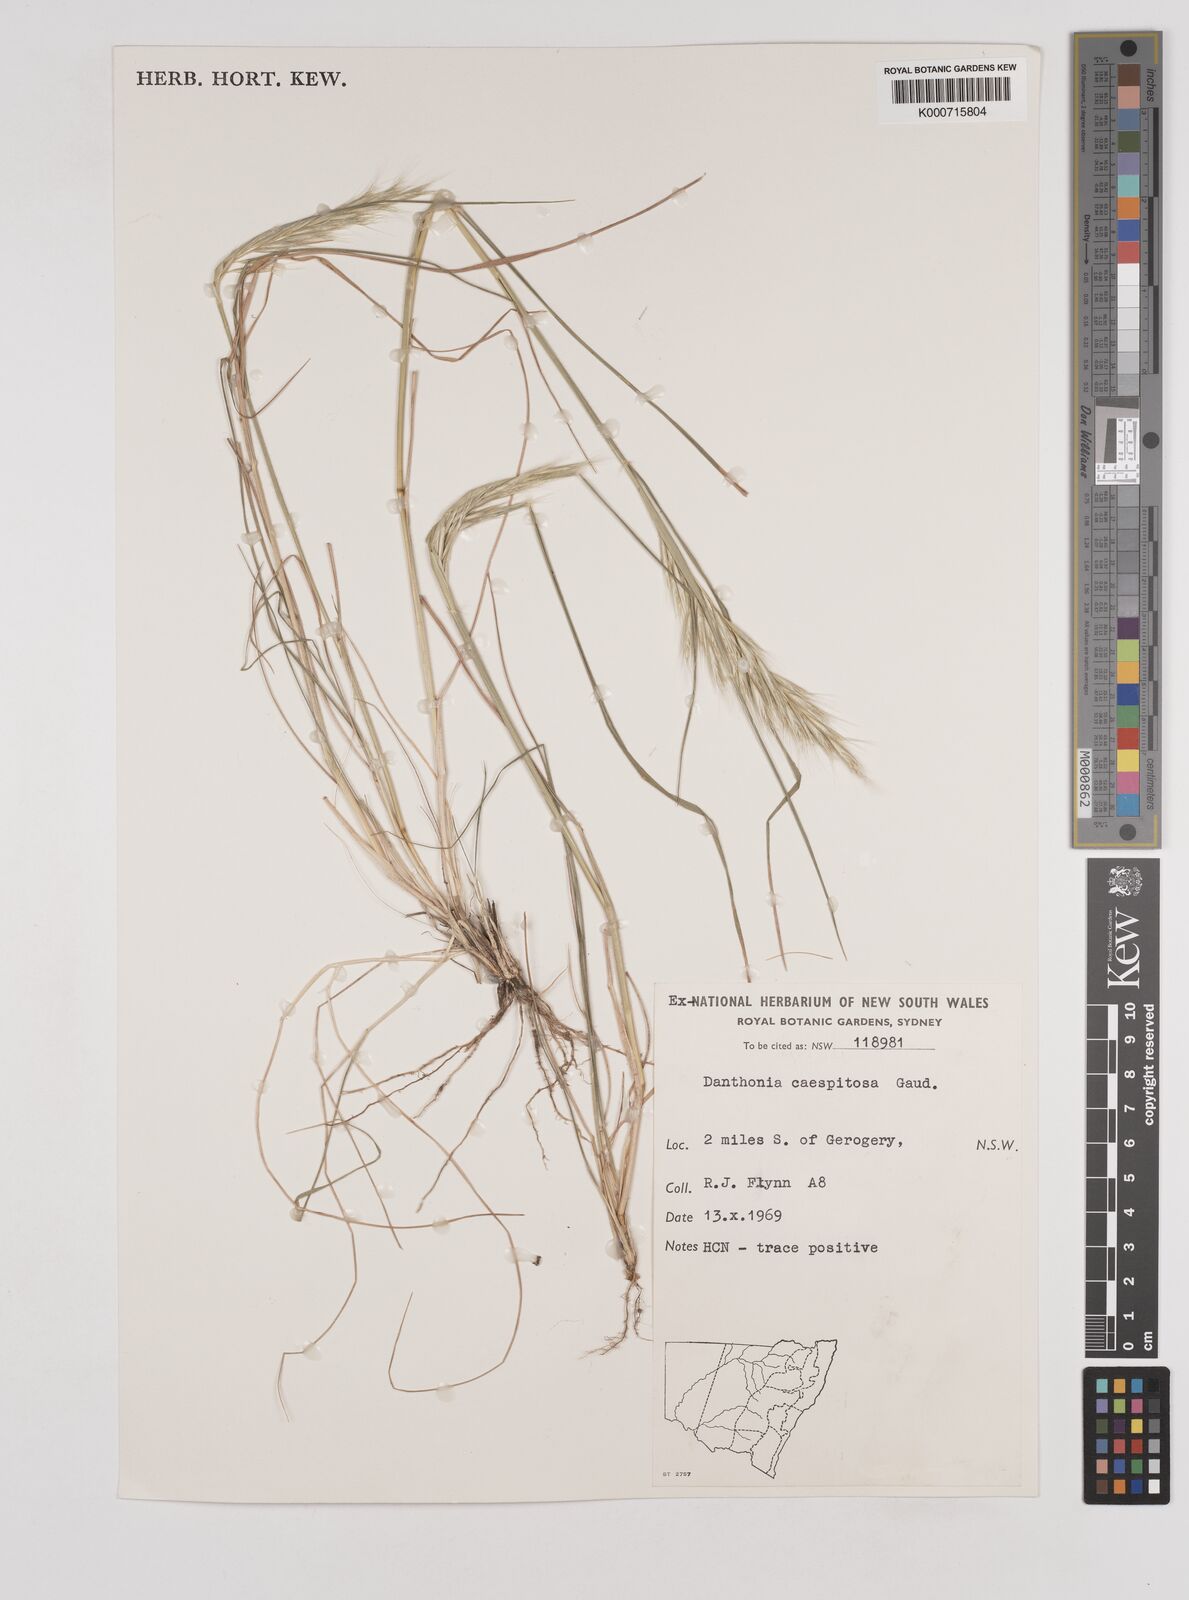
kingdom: Plantae
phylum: Tracheophyta
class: Liliopsida
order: Poales
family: Poaceae
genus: Rytidosperma
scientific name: Rytidosperma caespitosum
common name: Tufted wallaby grass
